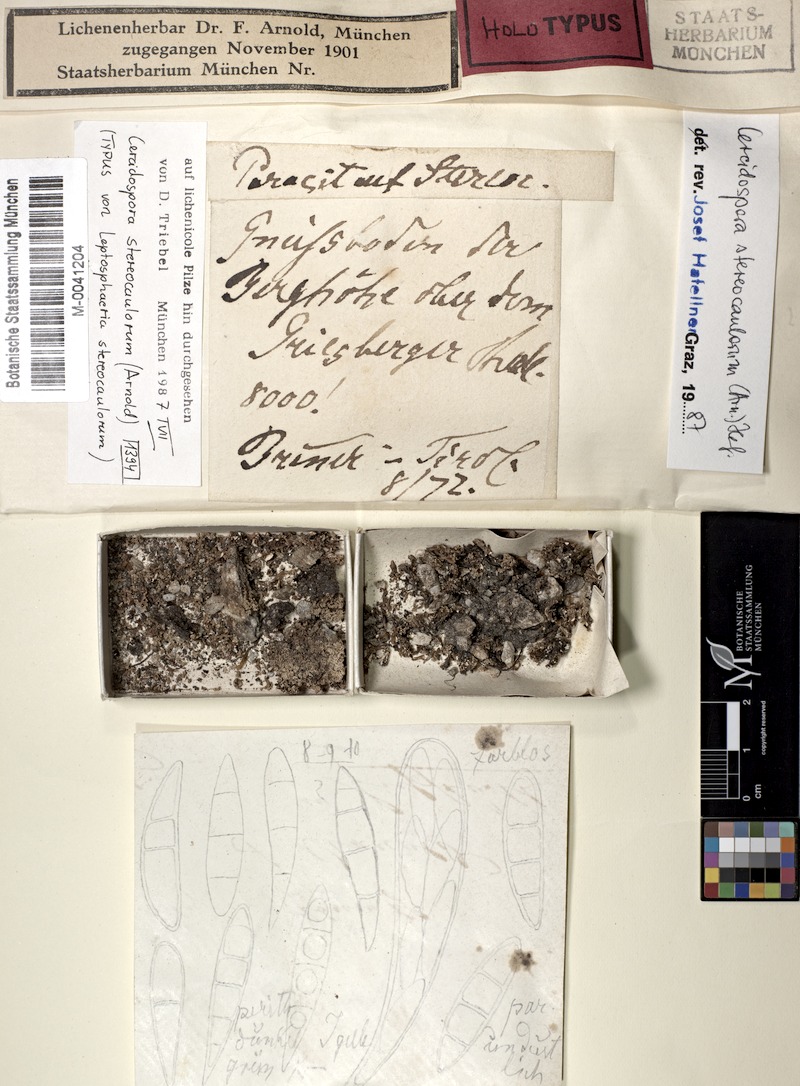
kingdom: Fungi
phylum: Ascomycota
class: Dothideomycetes
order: Dothideales
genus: Cercidospora
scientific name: Cercidospora stereocaulorum
